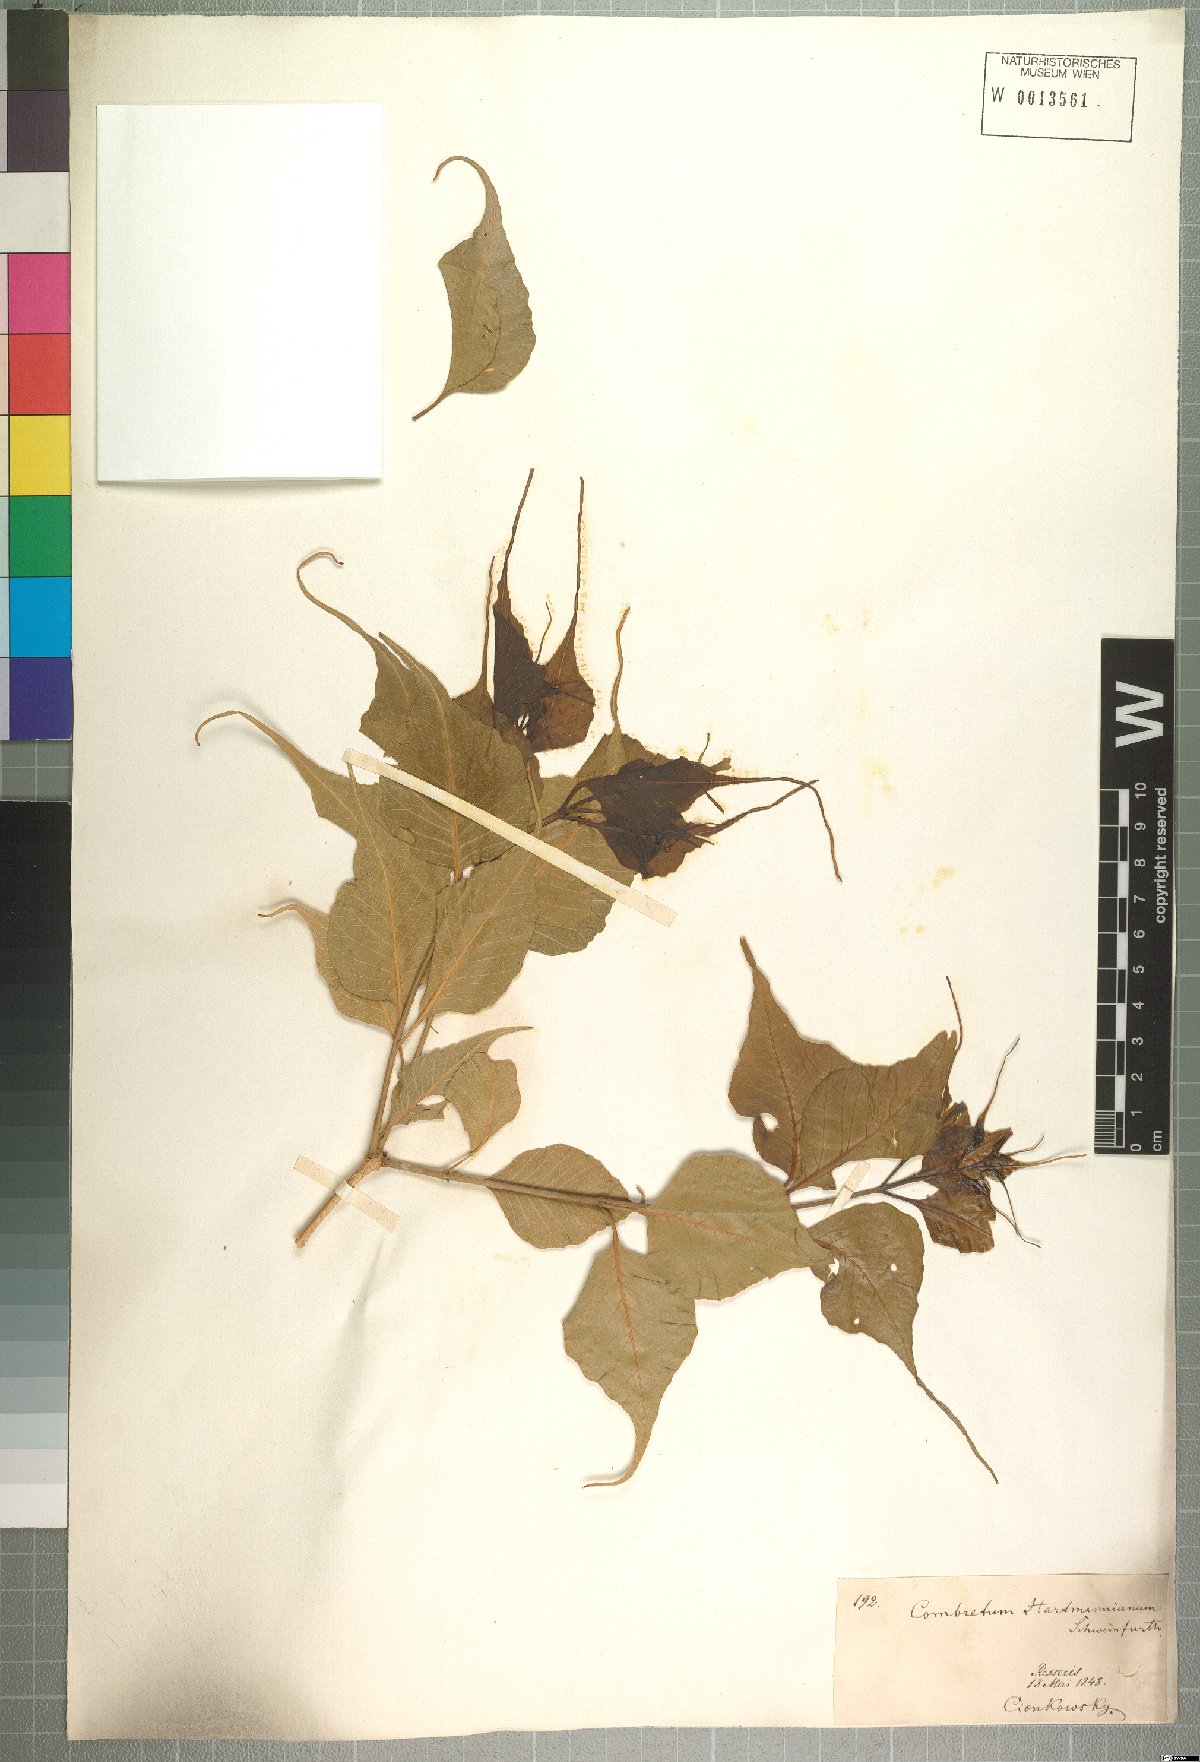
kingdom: Plantae
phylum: Tracheophyta
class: Magnoliopsida
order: Myrtales
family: Combretaceae
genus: Combretum
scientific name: Combretum hartmannianum
